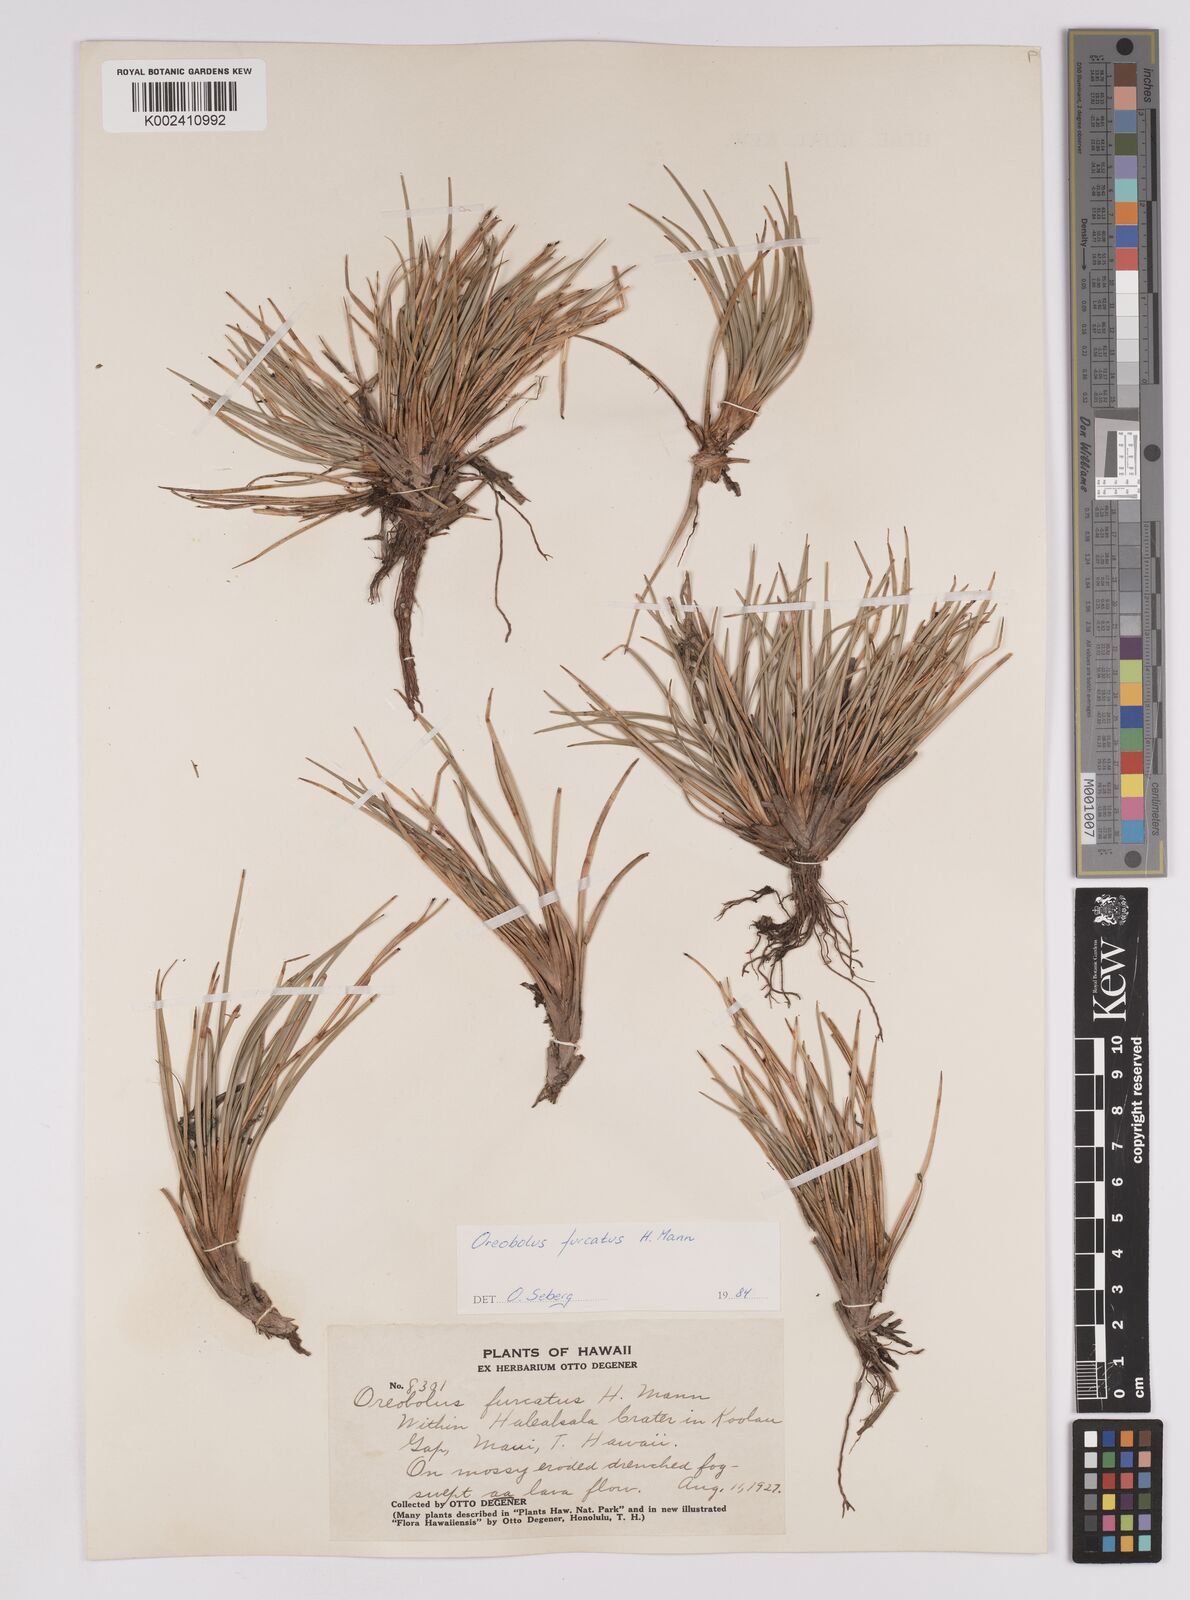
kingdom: Plantae
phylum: Tracheophyta
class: Liliopsida
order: Poales
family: Cyperaceae
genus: Oreobolus
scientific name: Oreobolus furcatus
